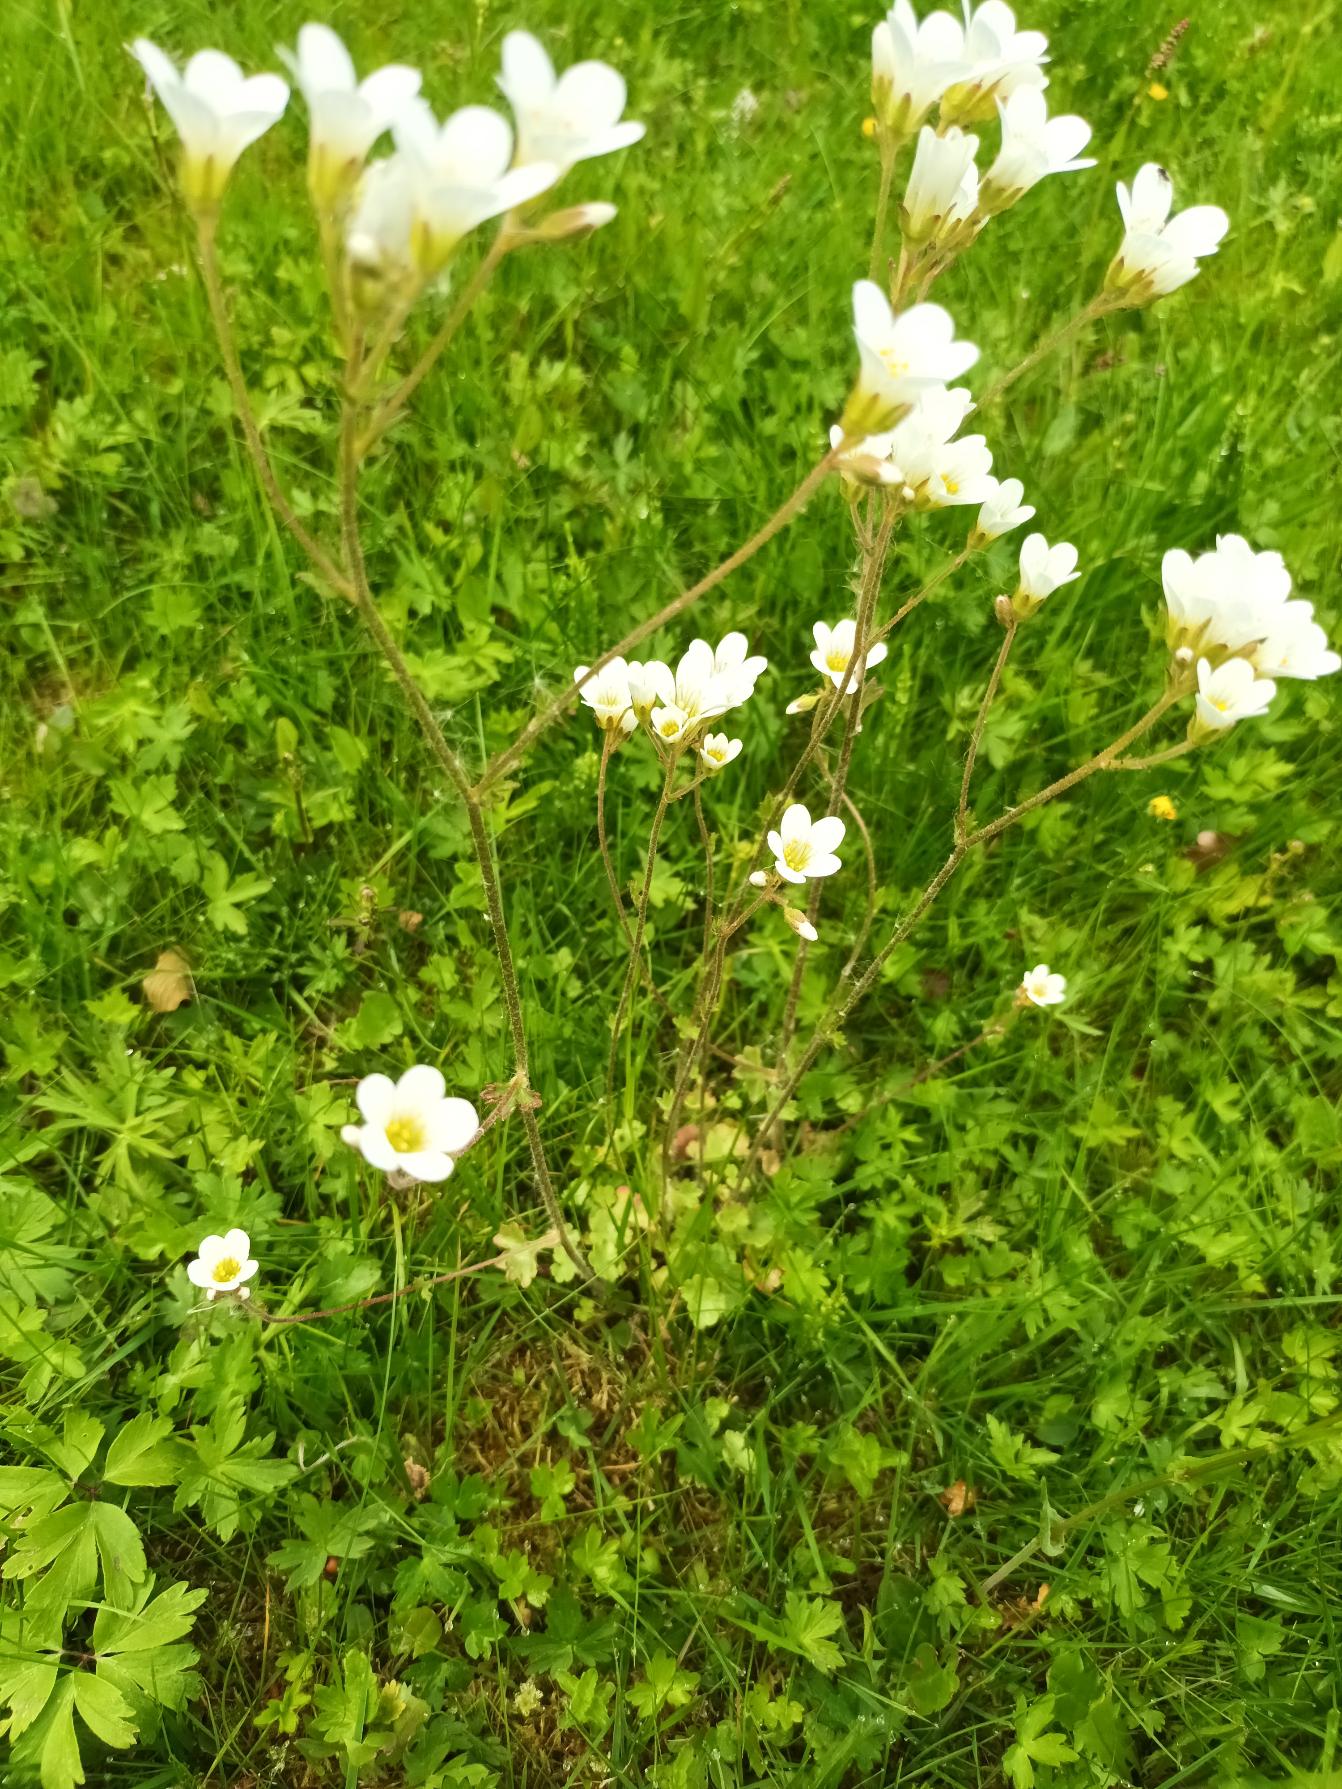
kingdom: Plantae
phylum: Tracheophyta
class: Magnoliopsida
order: Saxifragales
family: Saxifragaceae
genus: Saxifraga
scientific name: Saxifraga granulata
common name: Kornet stenbræk
